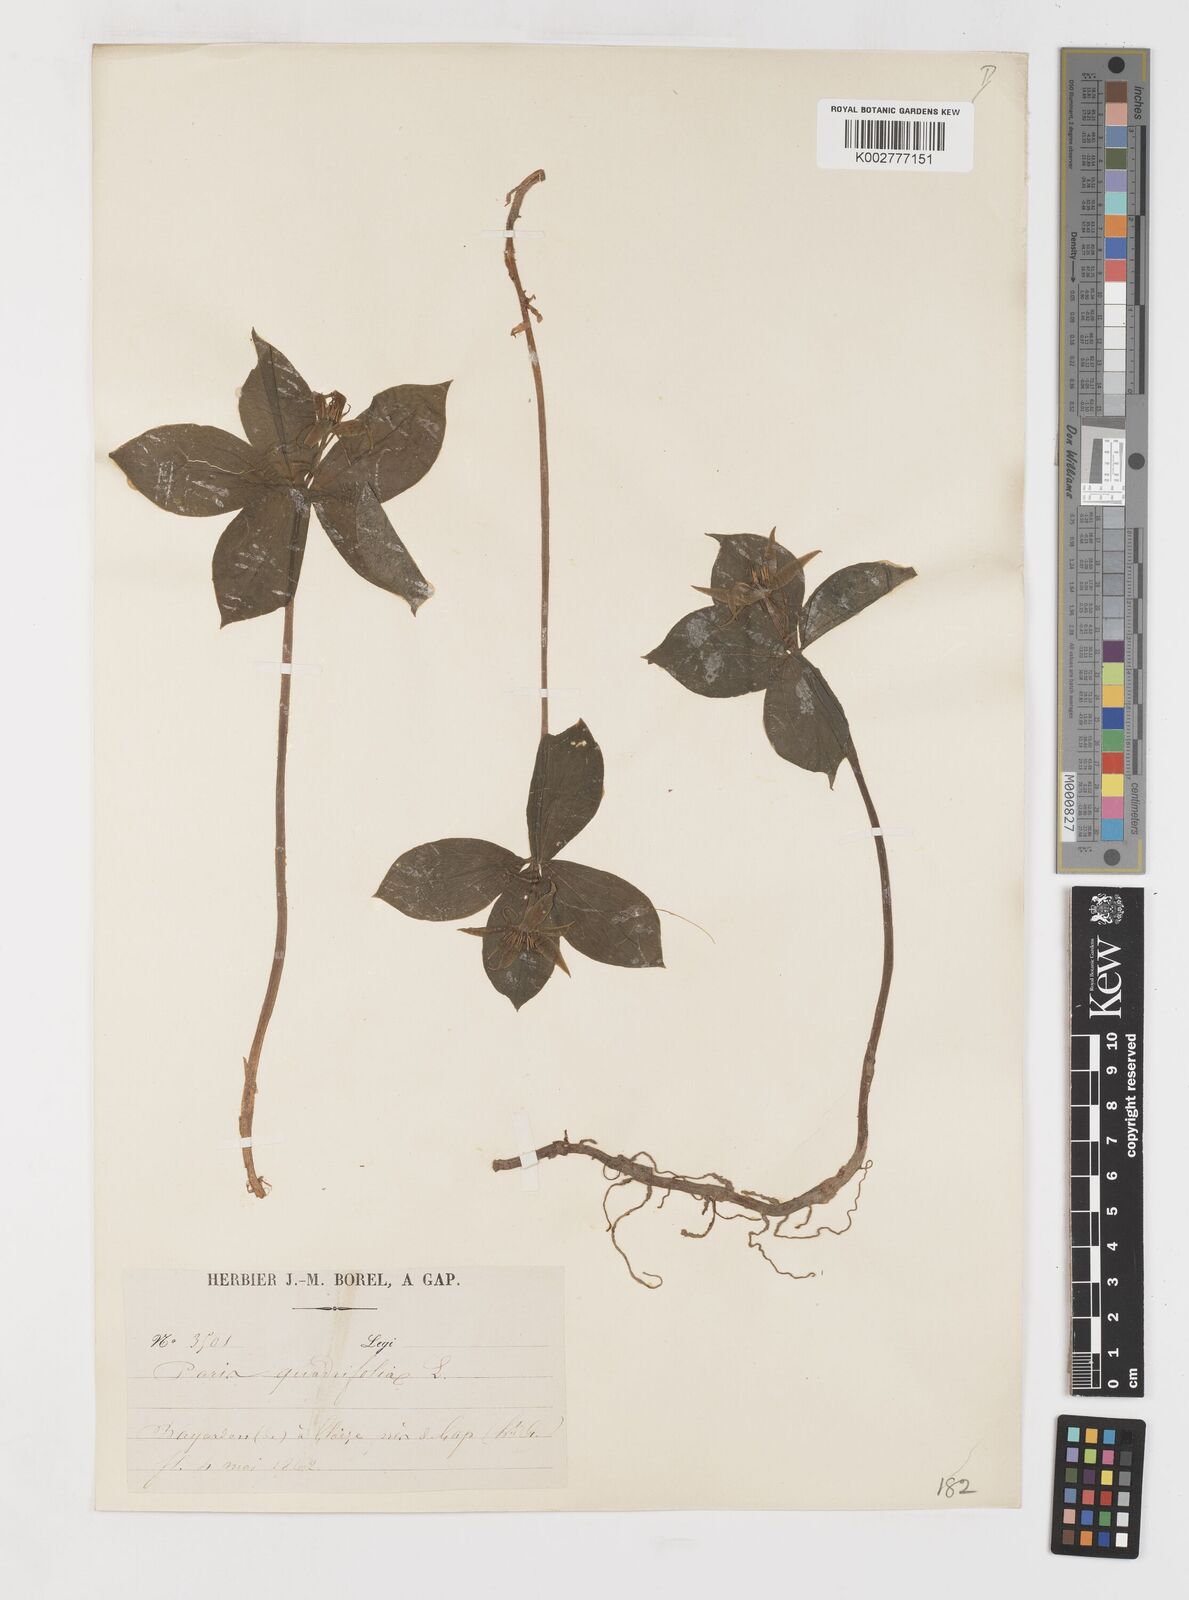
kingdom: Plantae
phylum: Tracheophyta
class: Liliopsida
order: Liliales
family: Melanthiaceae
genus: Paris
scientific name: Paris quadrifolia
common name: Herb-paris
